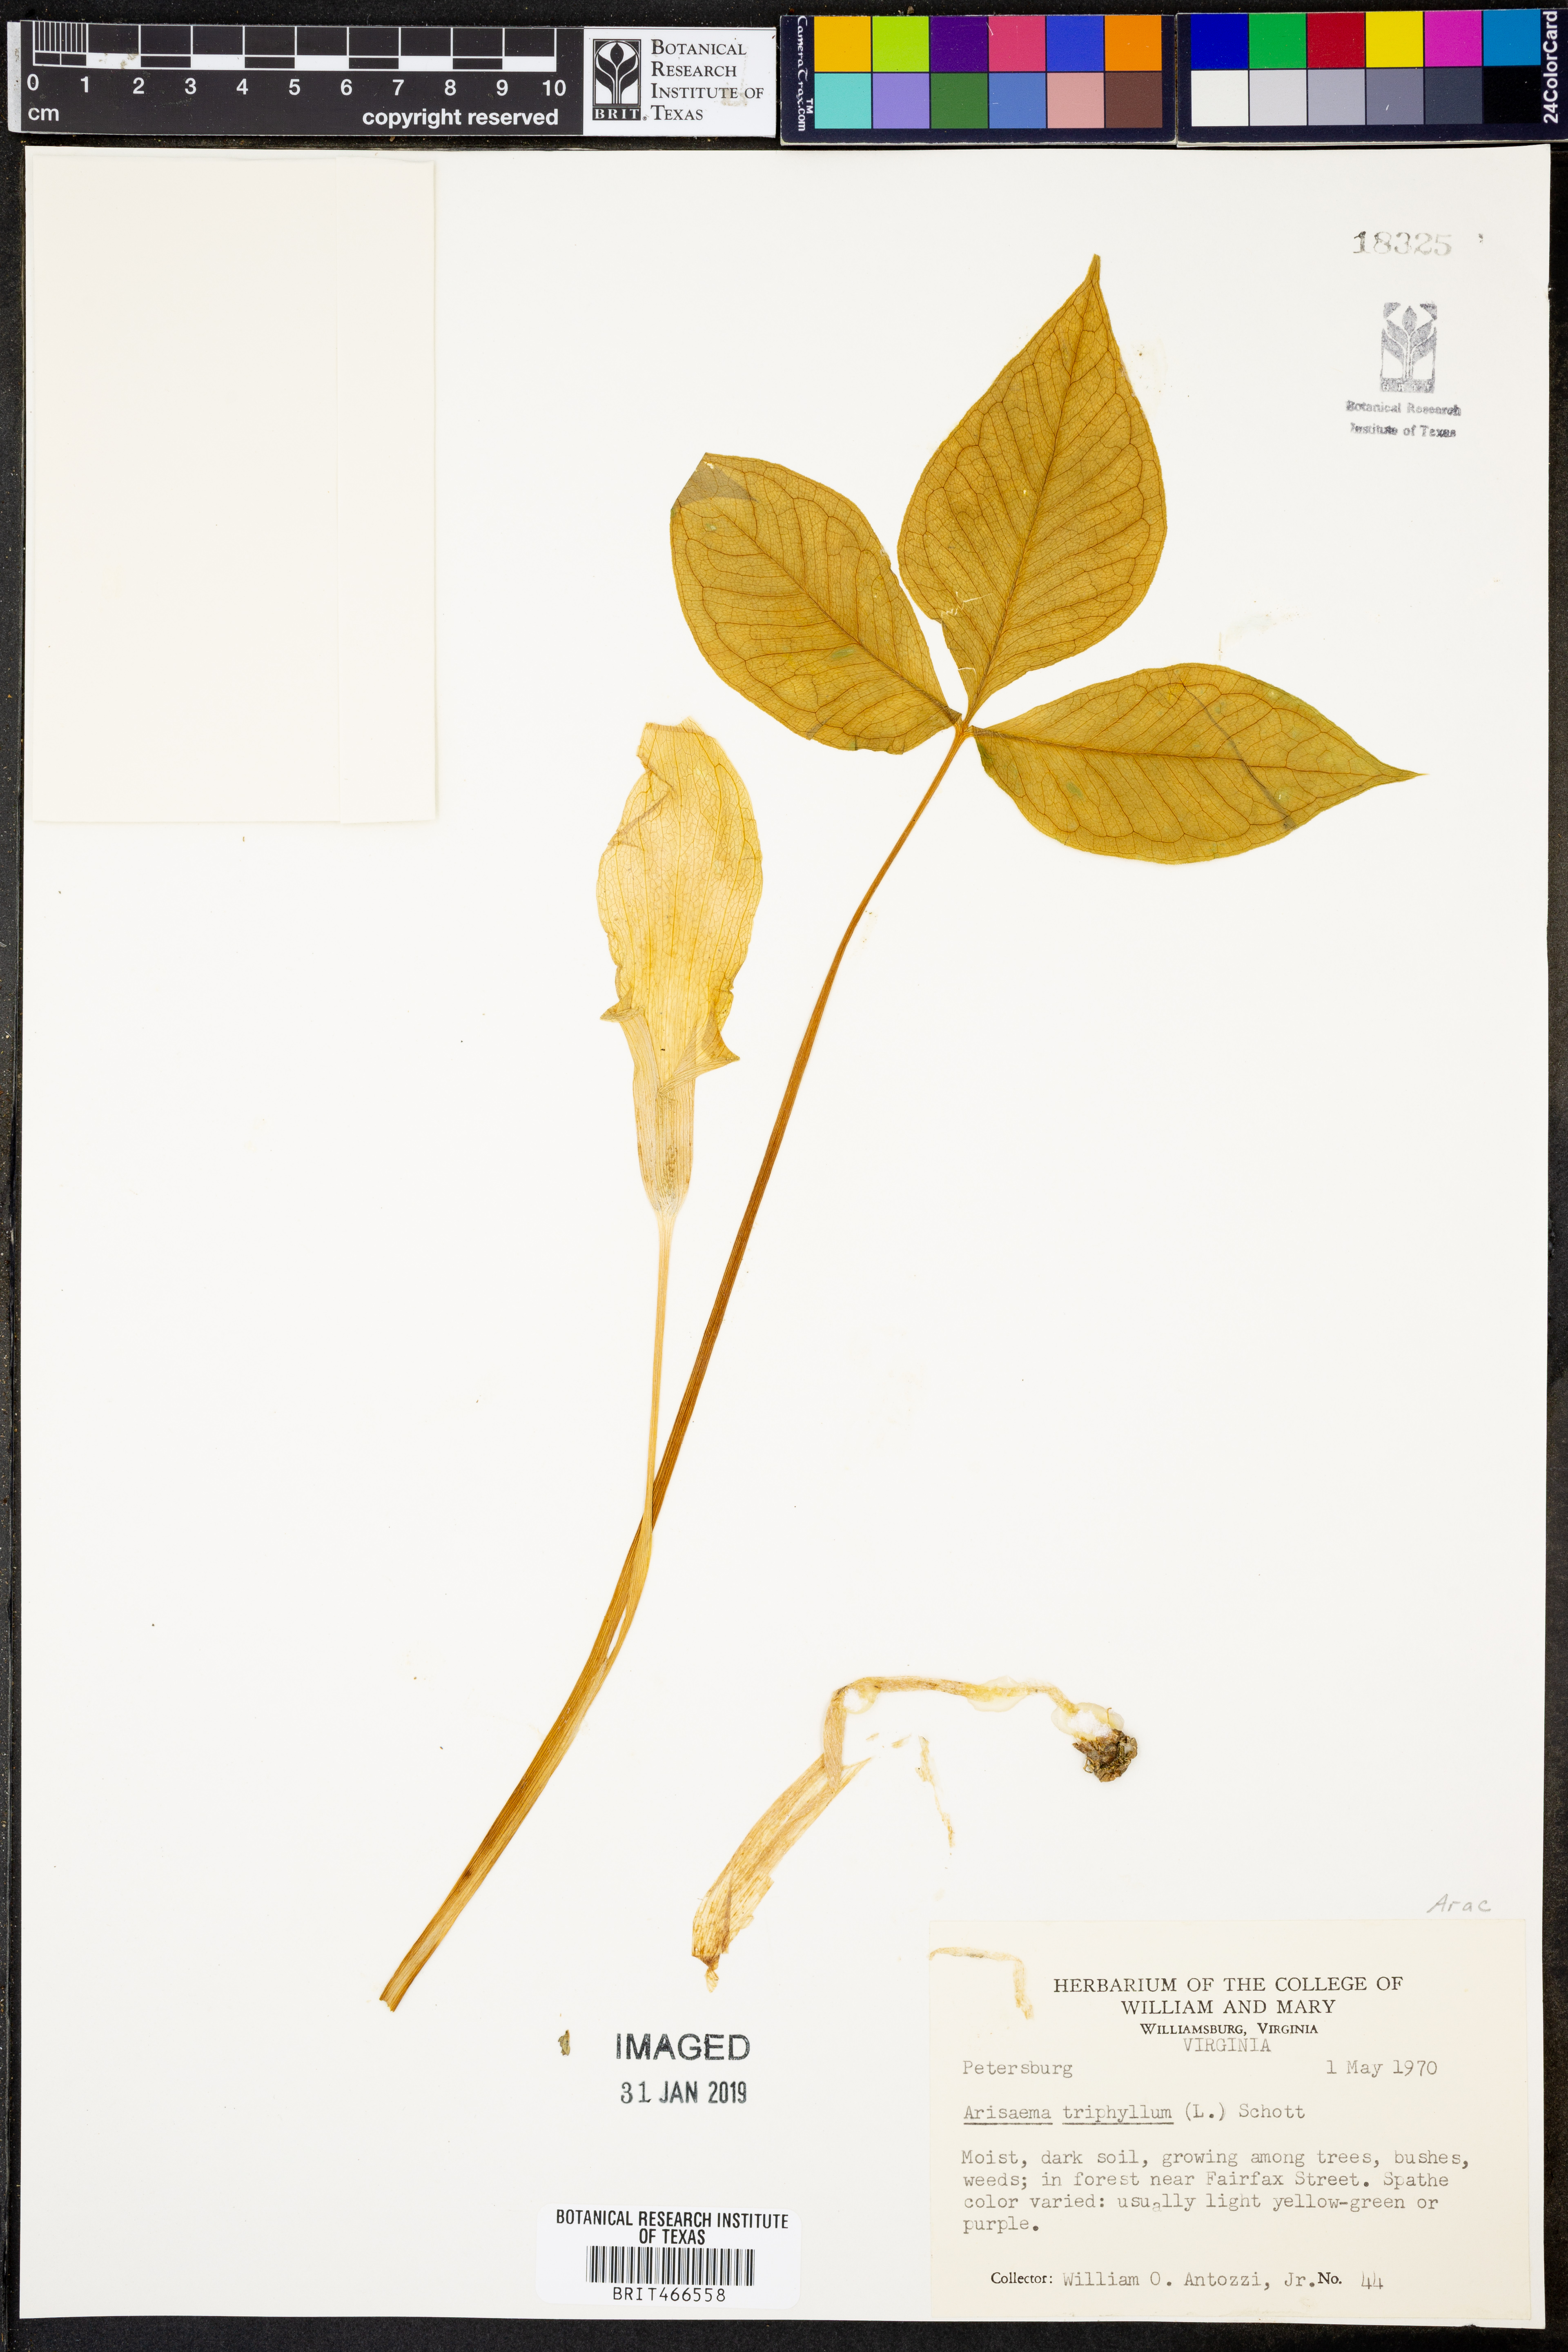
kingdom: Plantae
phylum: Tracheophyta
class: Liliopsida
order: Alismatales
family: Araceae
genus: Arisaema
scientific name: Arisaema
